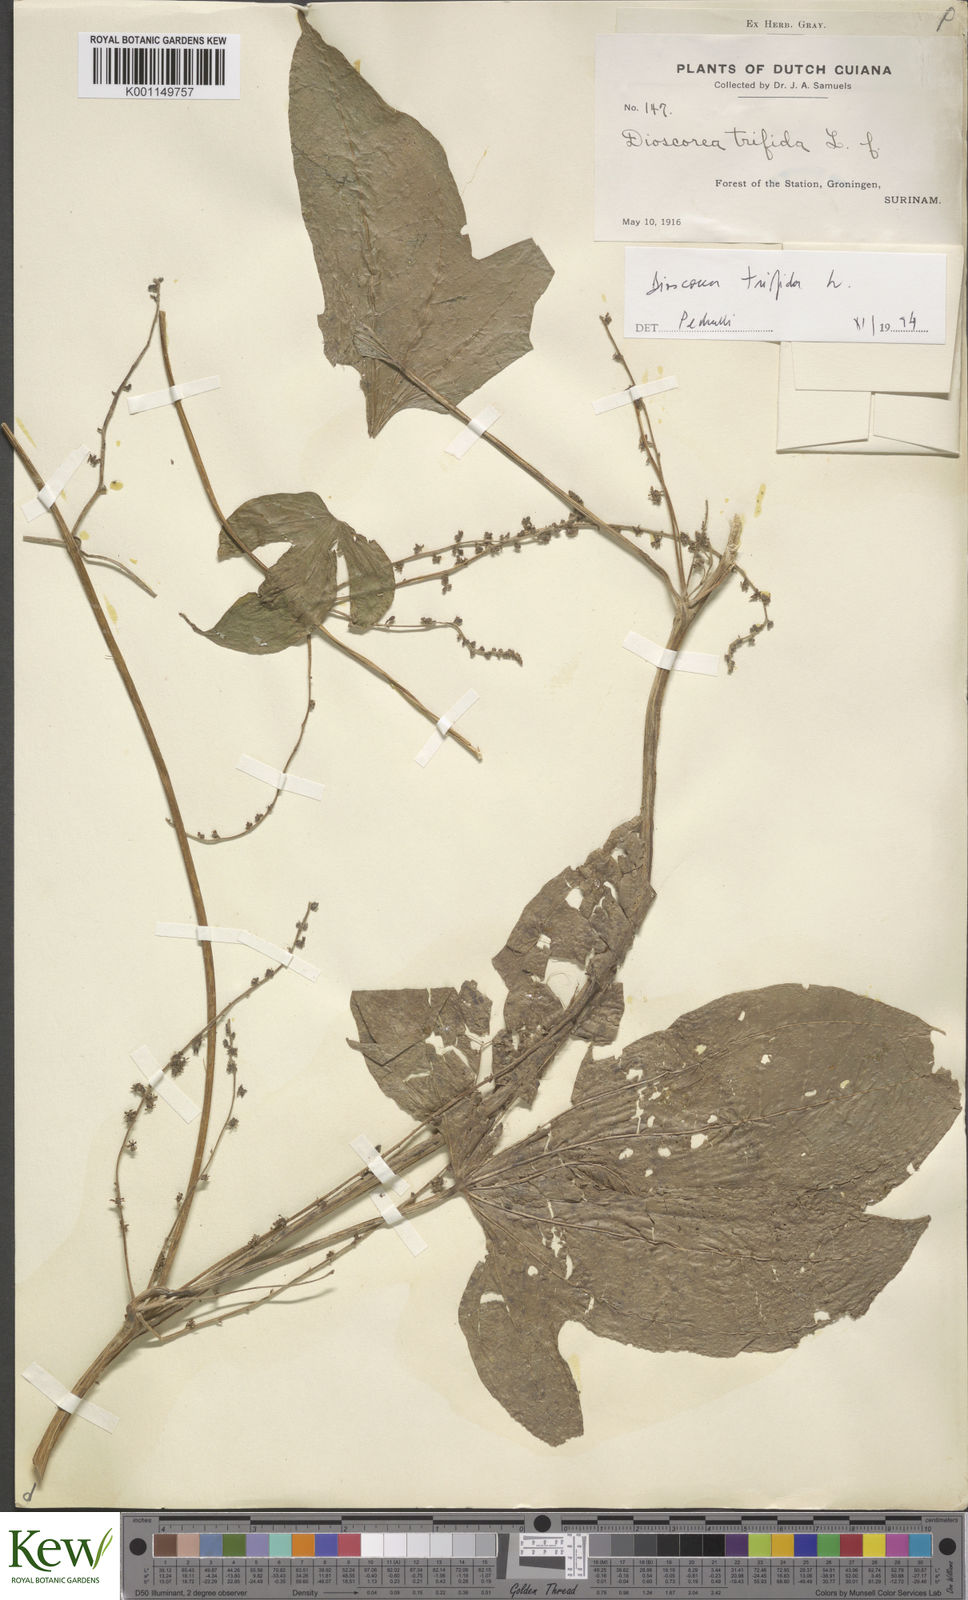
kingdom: Plantae
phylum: Tracheophyta
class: Liliopsida
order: Dioscoreales
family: Dioscoreaceae
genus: Dioscorea
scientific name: Dioscorea trifida
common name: Cush-cush
